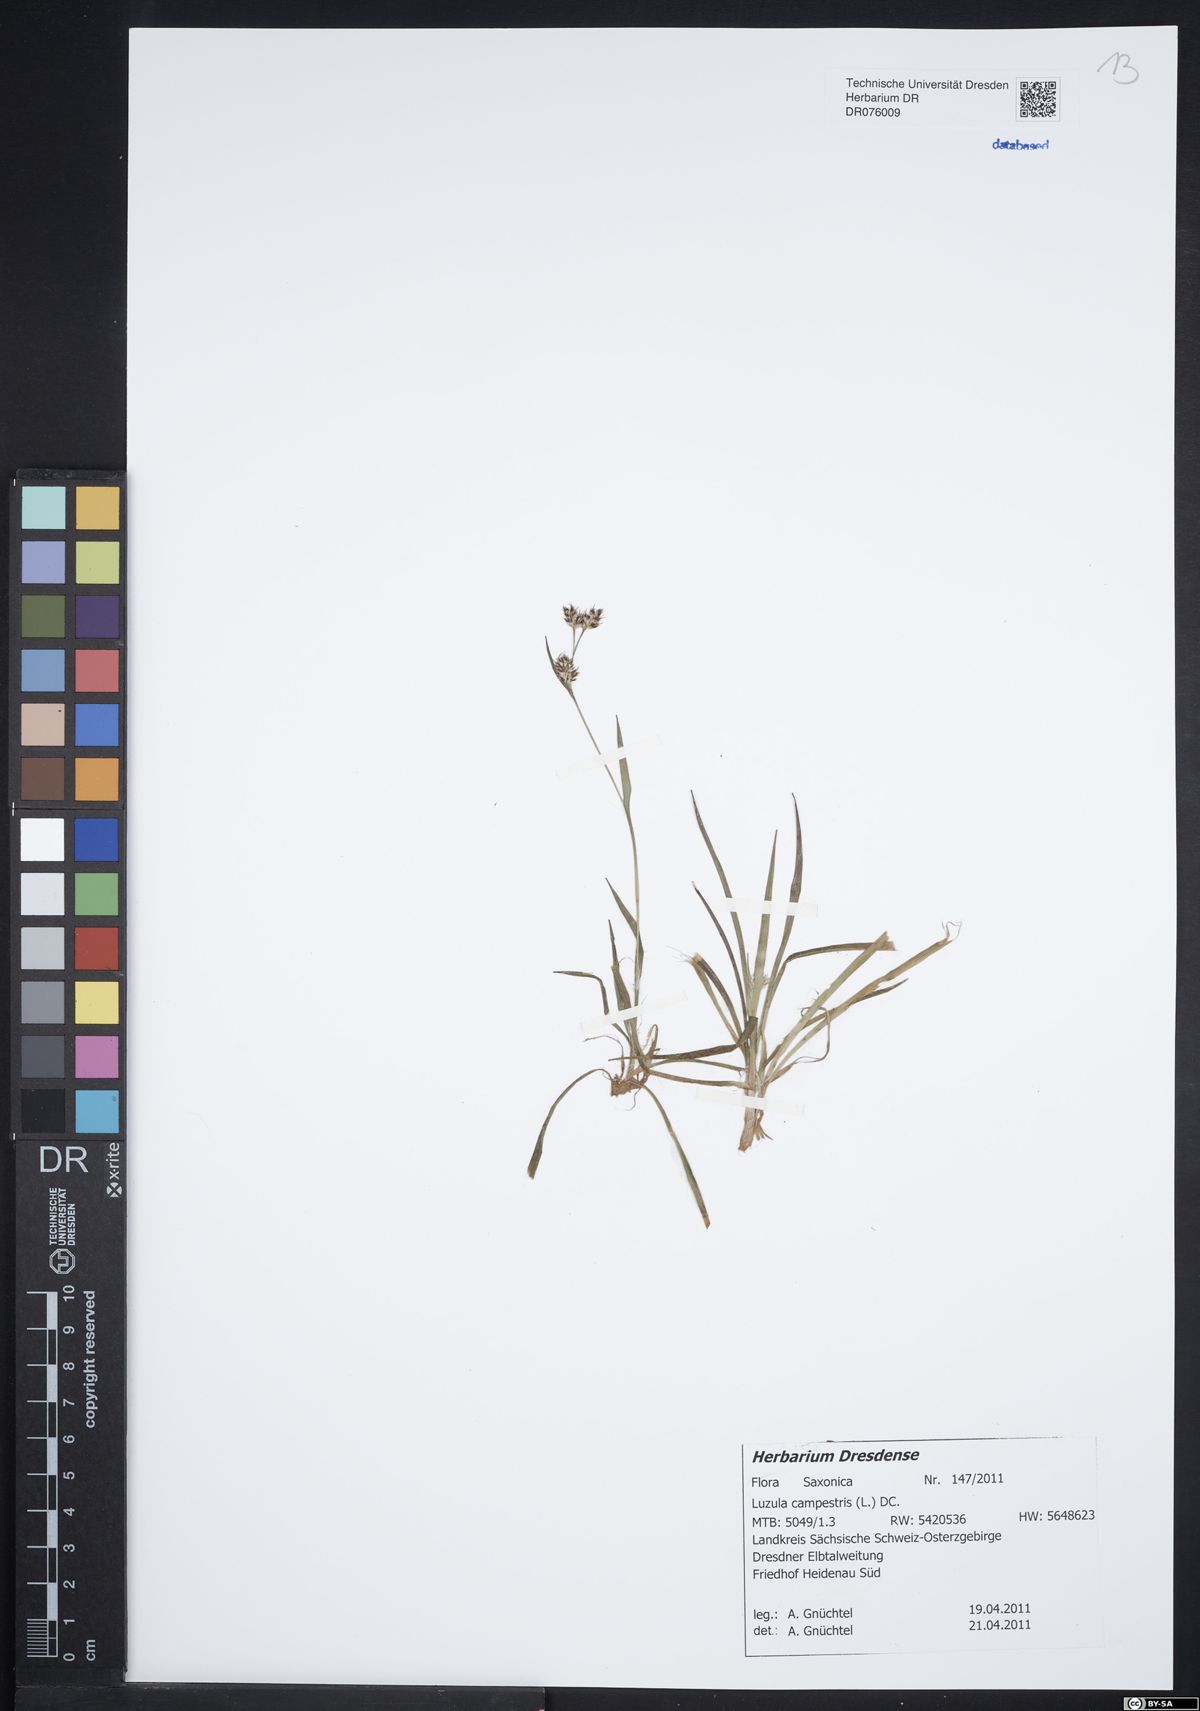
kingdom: Plantae
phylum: Tracheophyta
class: Liliopsida
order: Poales
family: Juncaceae
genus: Luzula
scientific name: Luzula campestris
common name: Field wood-rush
